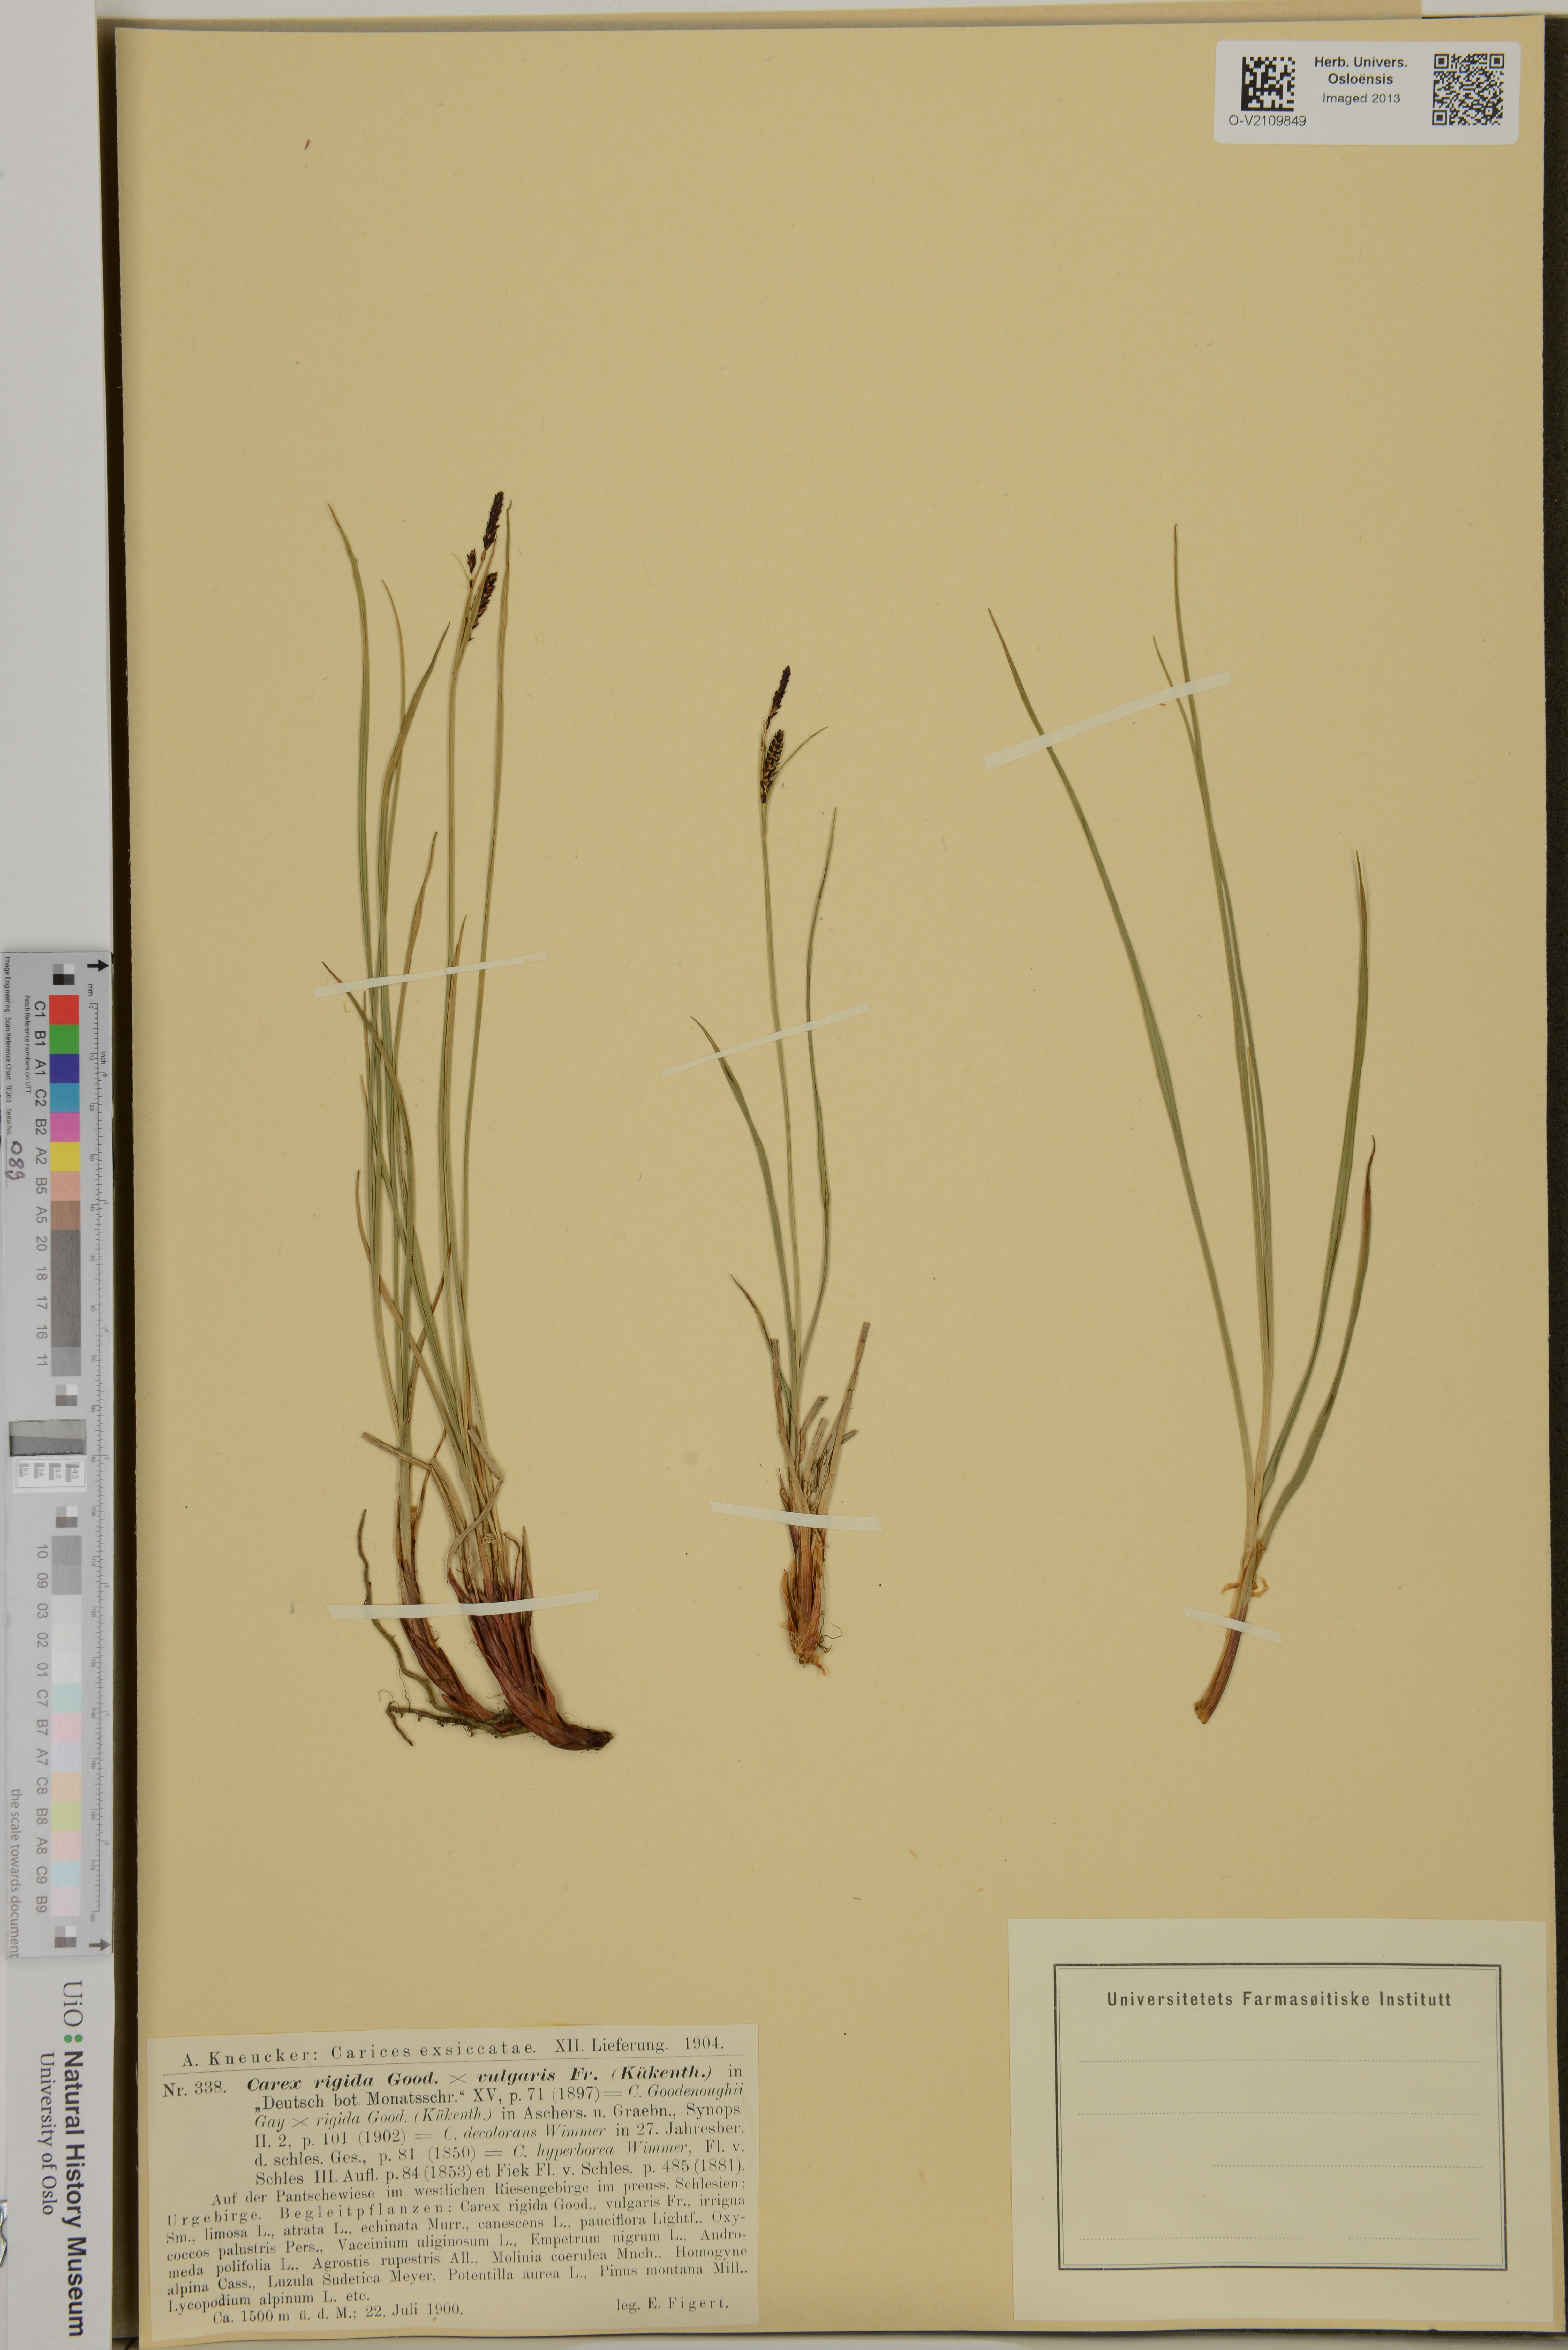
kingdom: Plantae
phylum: Tracheophyta
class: Liliopsida
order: Poales
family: Cyperaceae
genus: Carex
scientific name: Carex dacica
